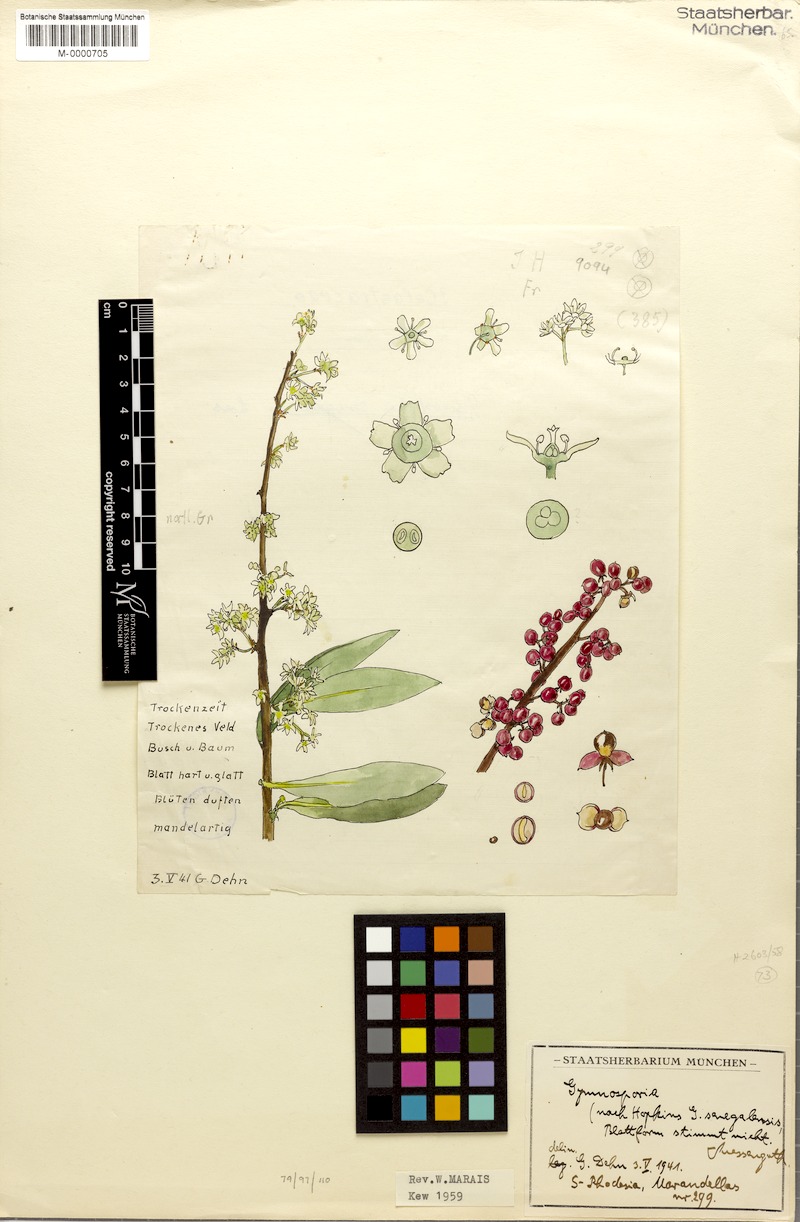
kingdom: Plantae
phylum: Tracheophyta
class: Magnoliopsida
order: Celastrales
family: Celastraceae
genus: Gymnosporia
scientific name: Gymnosporia
